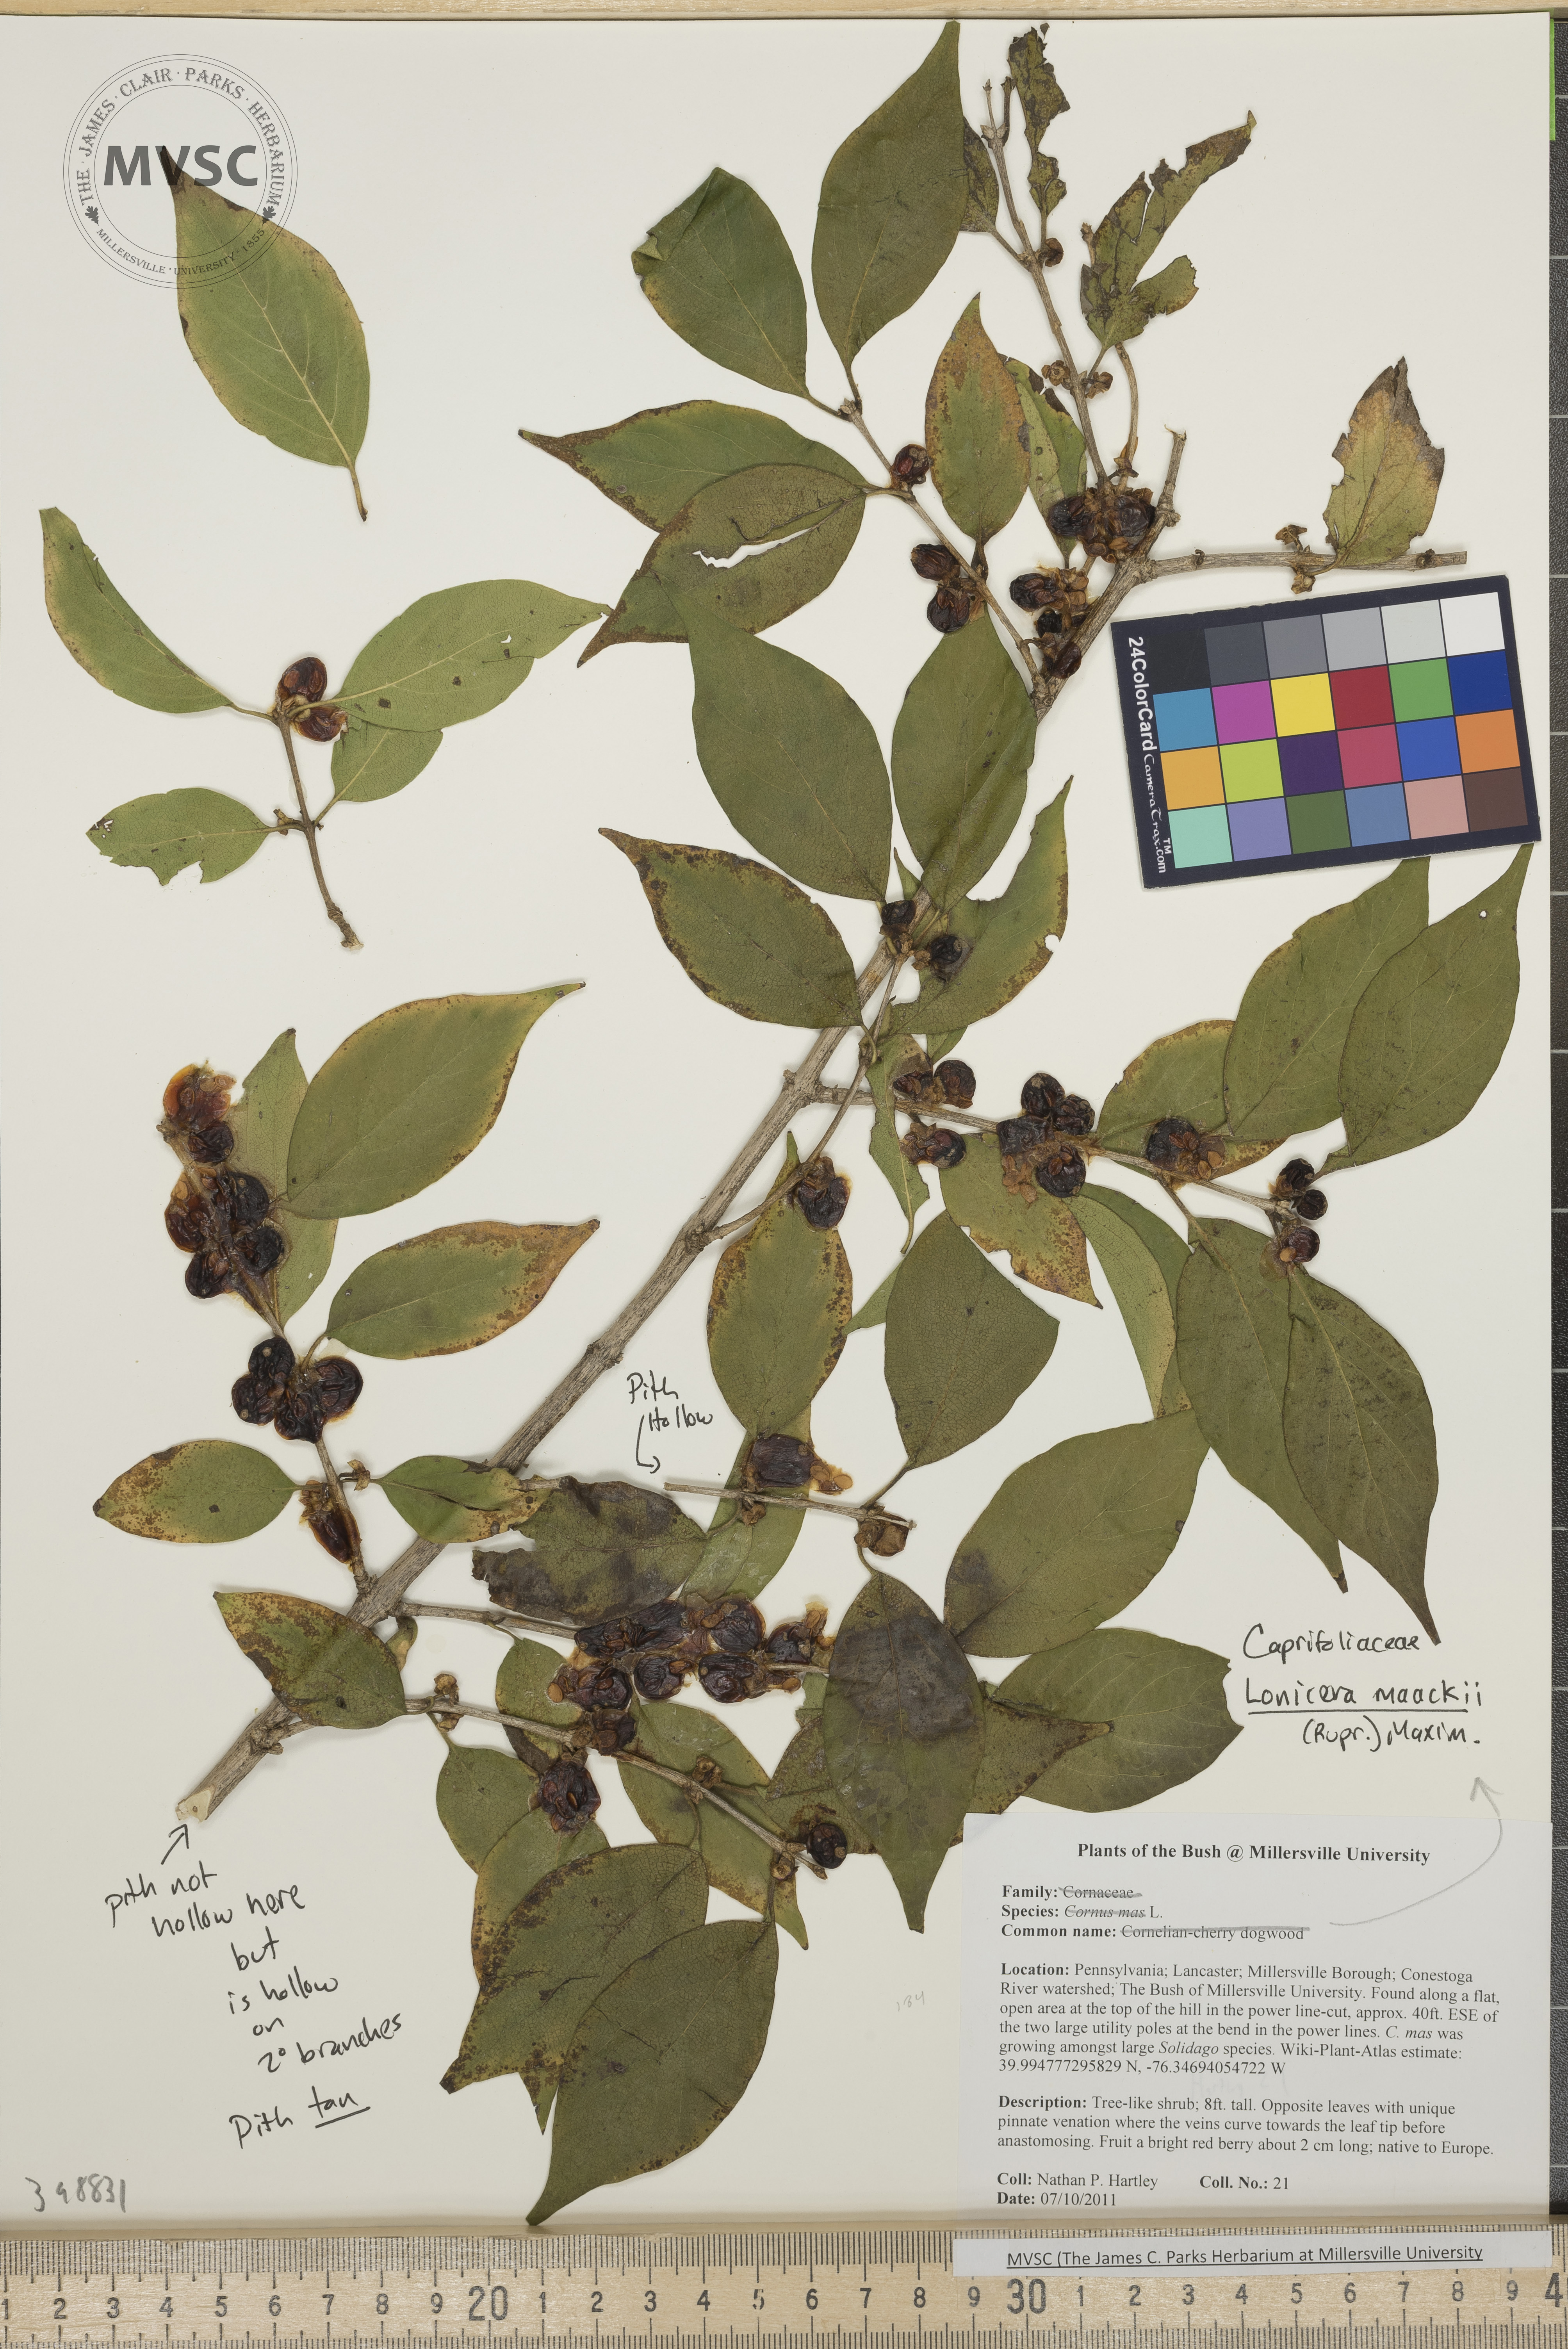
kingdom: Plantae
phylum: Tracheophyta
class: Magnoliopsida
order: Dipsacales
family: Caprifoliaceae
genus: Lonicera
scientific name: Lonicera maackii
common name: Amur honeysuckle
